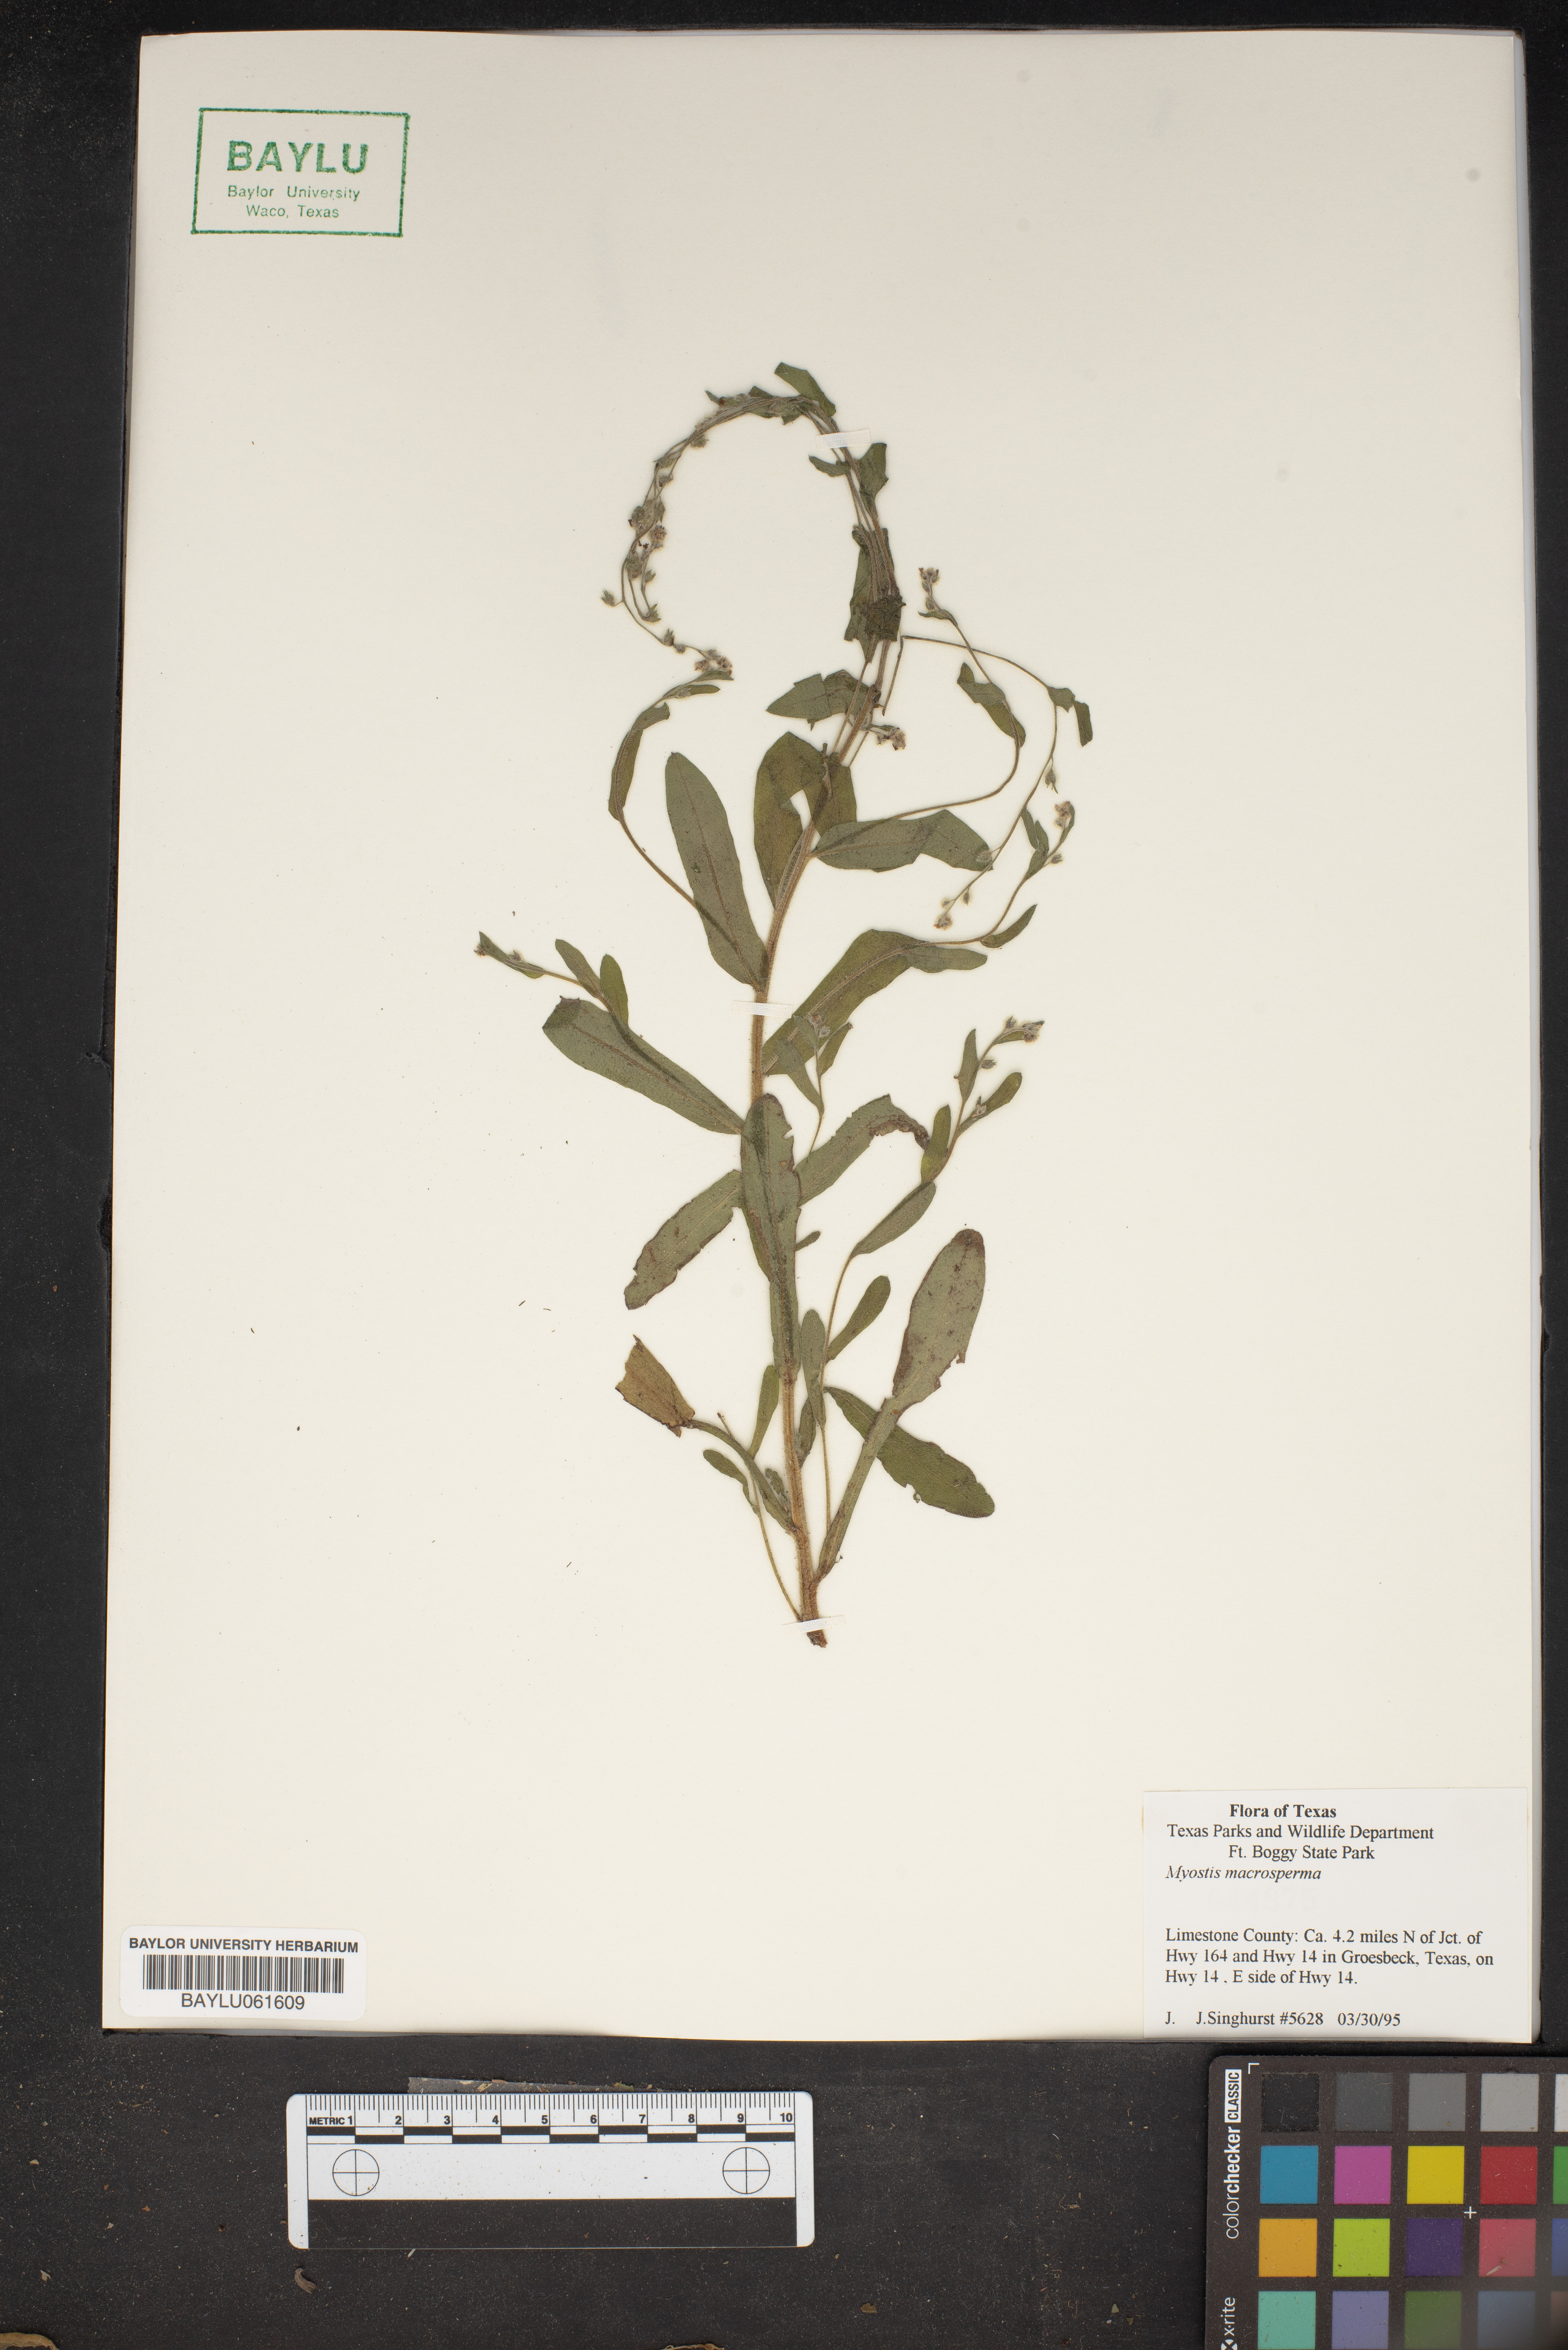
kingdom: Plantae
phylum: Tracheophyta
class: Magnoliopsida
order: Boraginales
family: Boraginaceae
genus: Myosotis
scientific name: Myosotis macrosperma
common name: Large-seed forget-me-not
